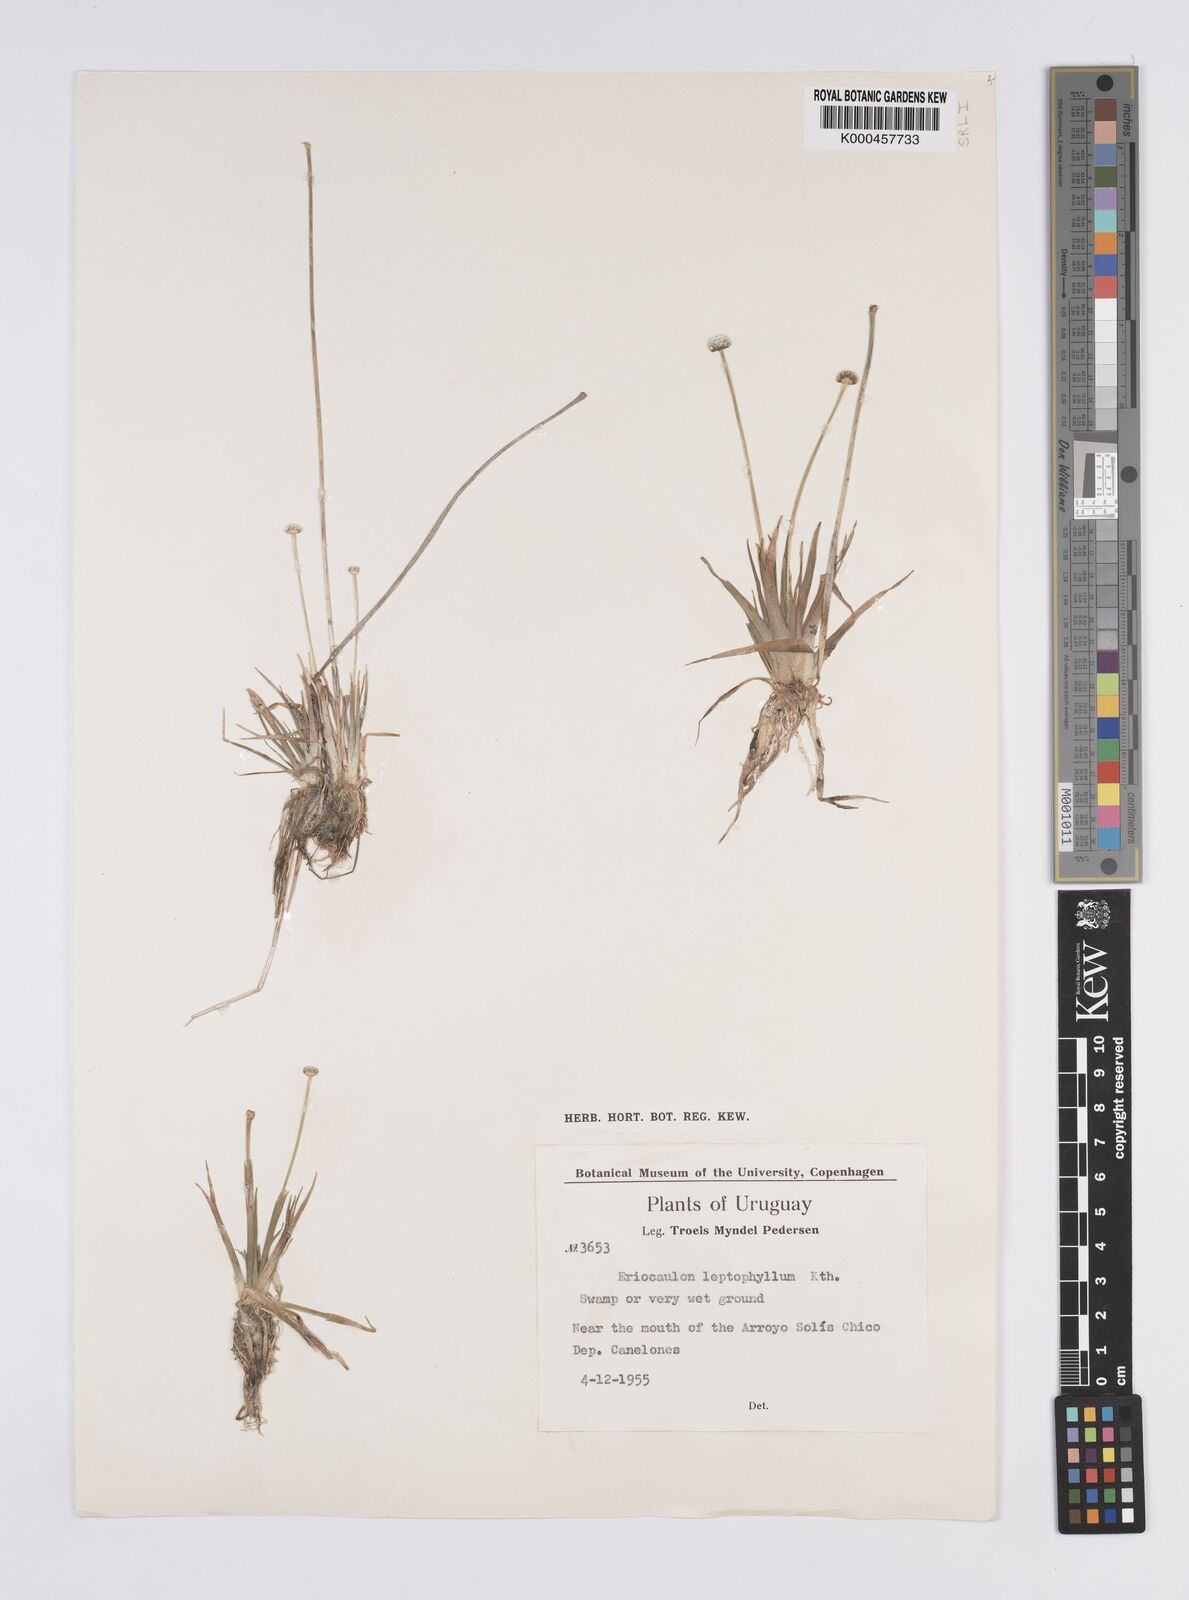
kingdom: Plantae
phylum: Tracheophyta
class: Liliopsida
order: Poales
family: Eriocaulaceae
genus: Eriocaulon
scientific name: Eriocaulon leptophyllum
